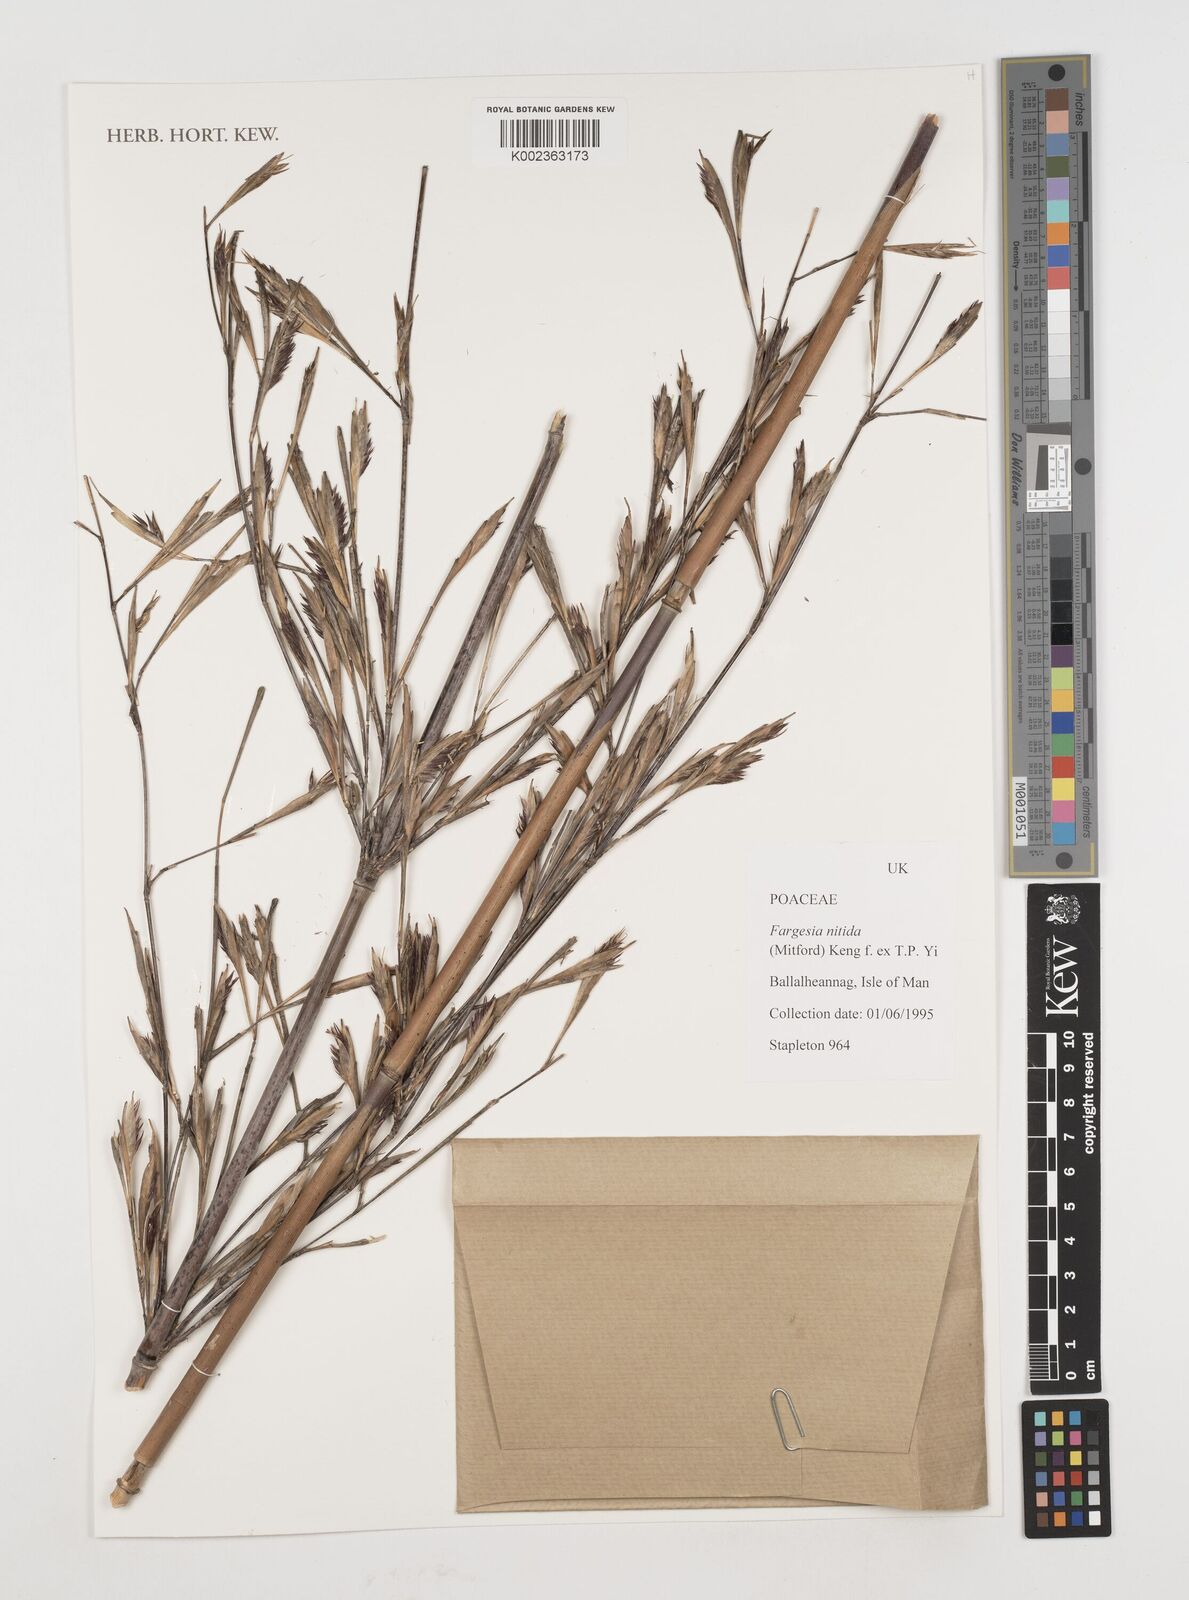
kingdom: Plantae
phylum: Tracheophyta
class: Liliopsida
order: Poales
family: Poaceae
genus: Fargesia
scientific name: Fargesia nitida ex
